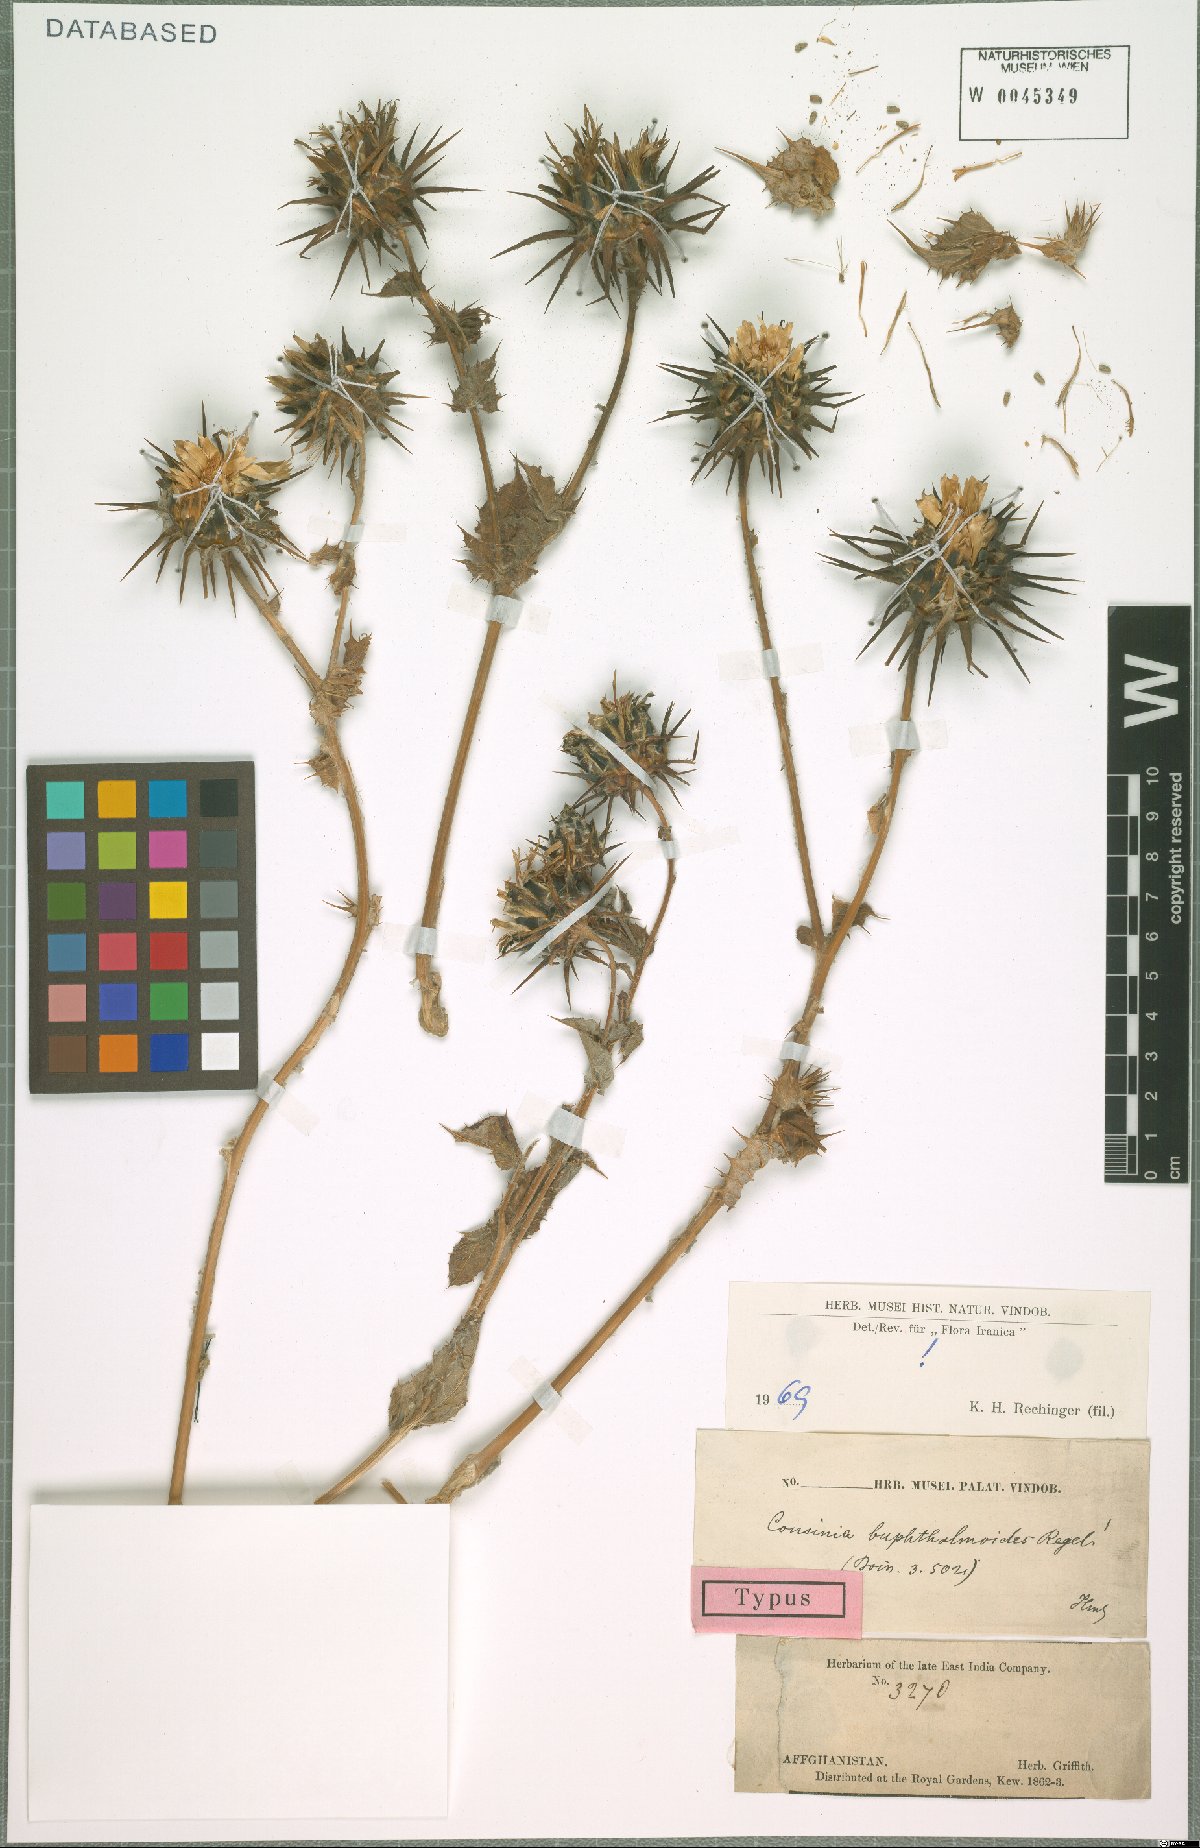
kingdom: Plantae
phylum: Tracheophyta
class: Magnoliopsida
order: Asterales
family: Asteraceae
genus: Cousinia
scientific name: Cousinia buphthalmoides
